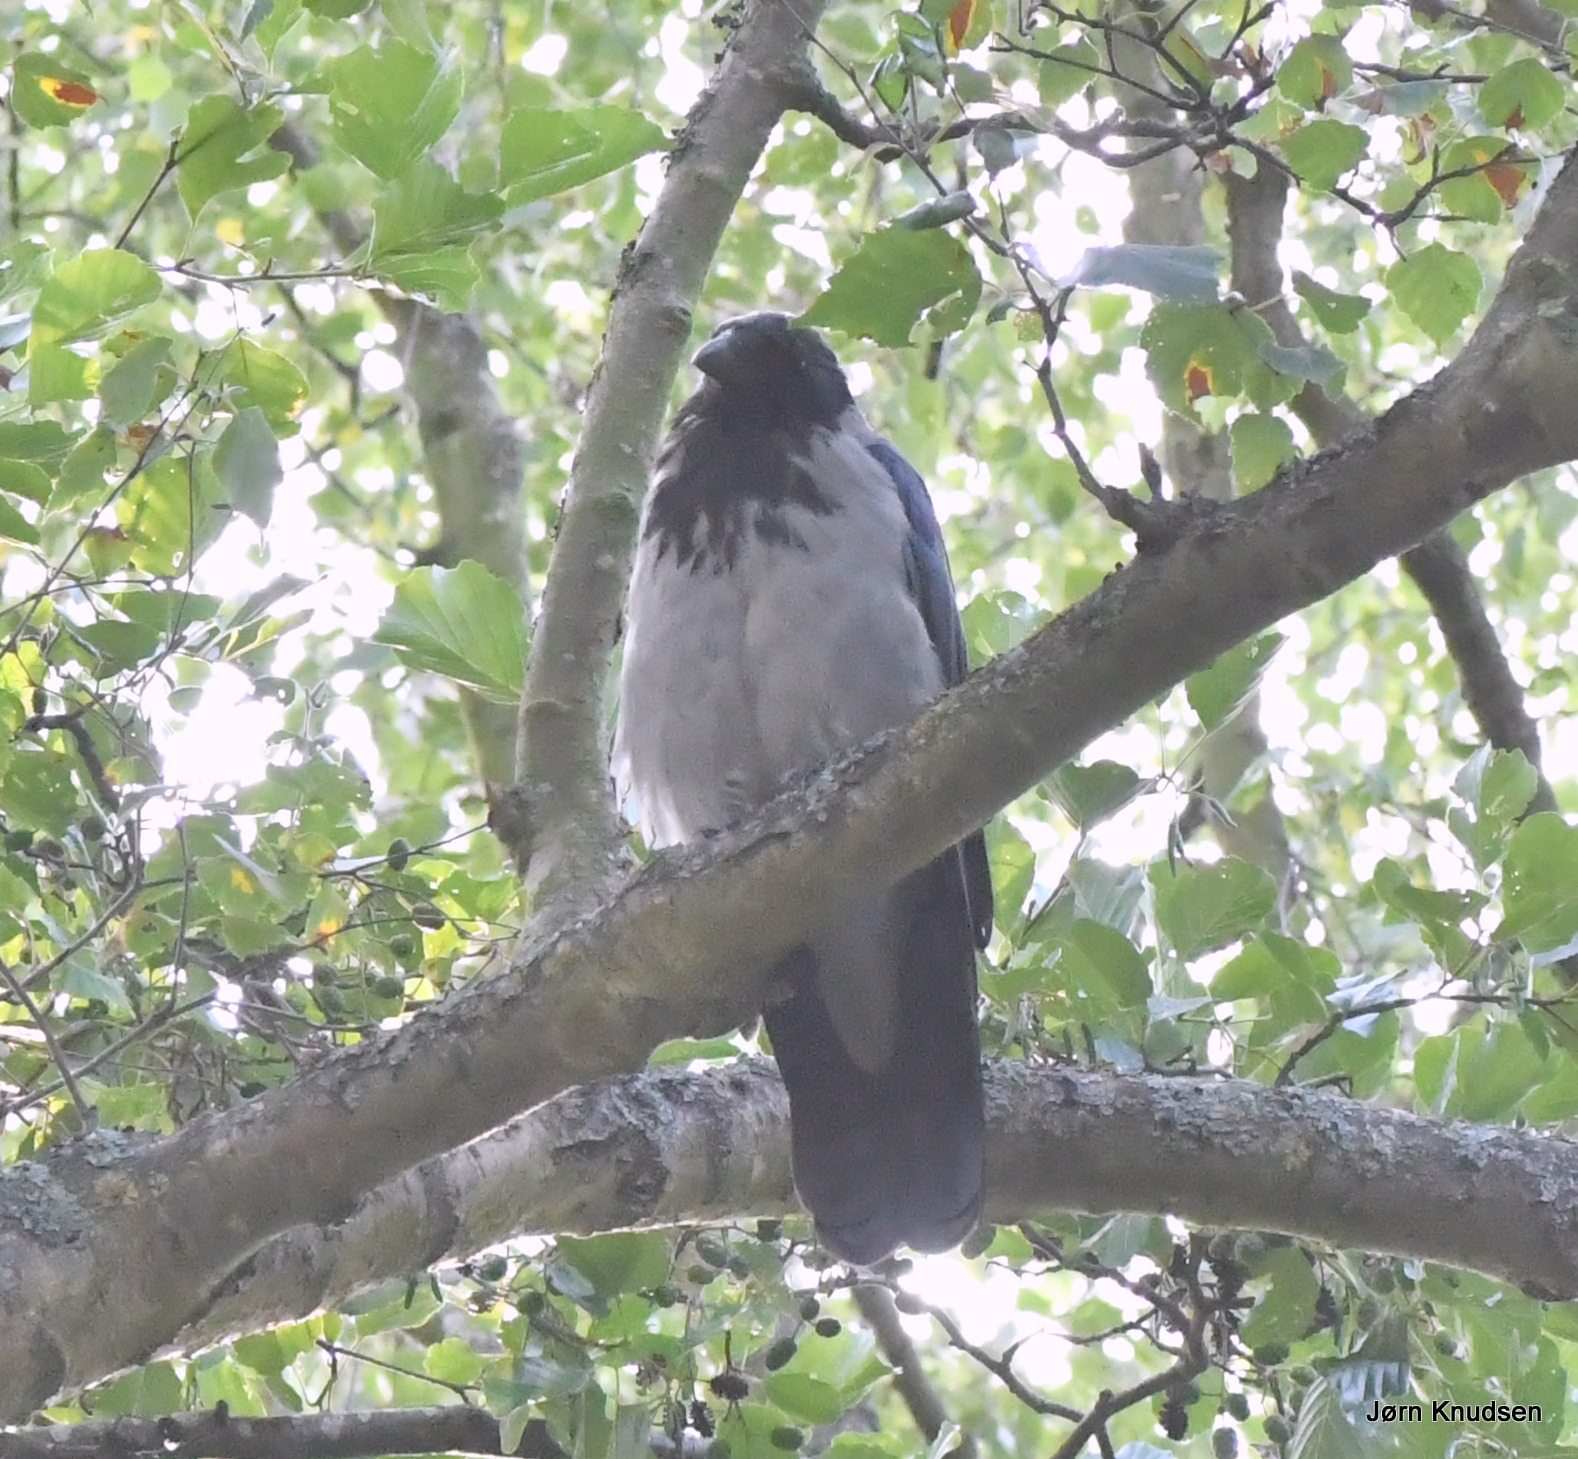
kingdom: Animalia
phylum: Chordata
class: Aves
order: Passeriformes
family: Corvidae
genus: Corvus
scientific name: Corvus cornix
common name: Gråkrage
